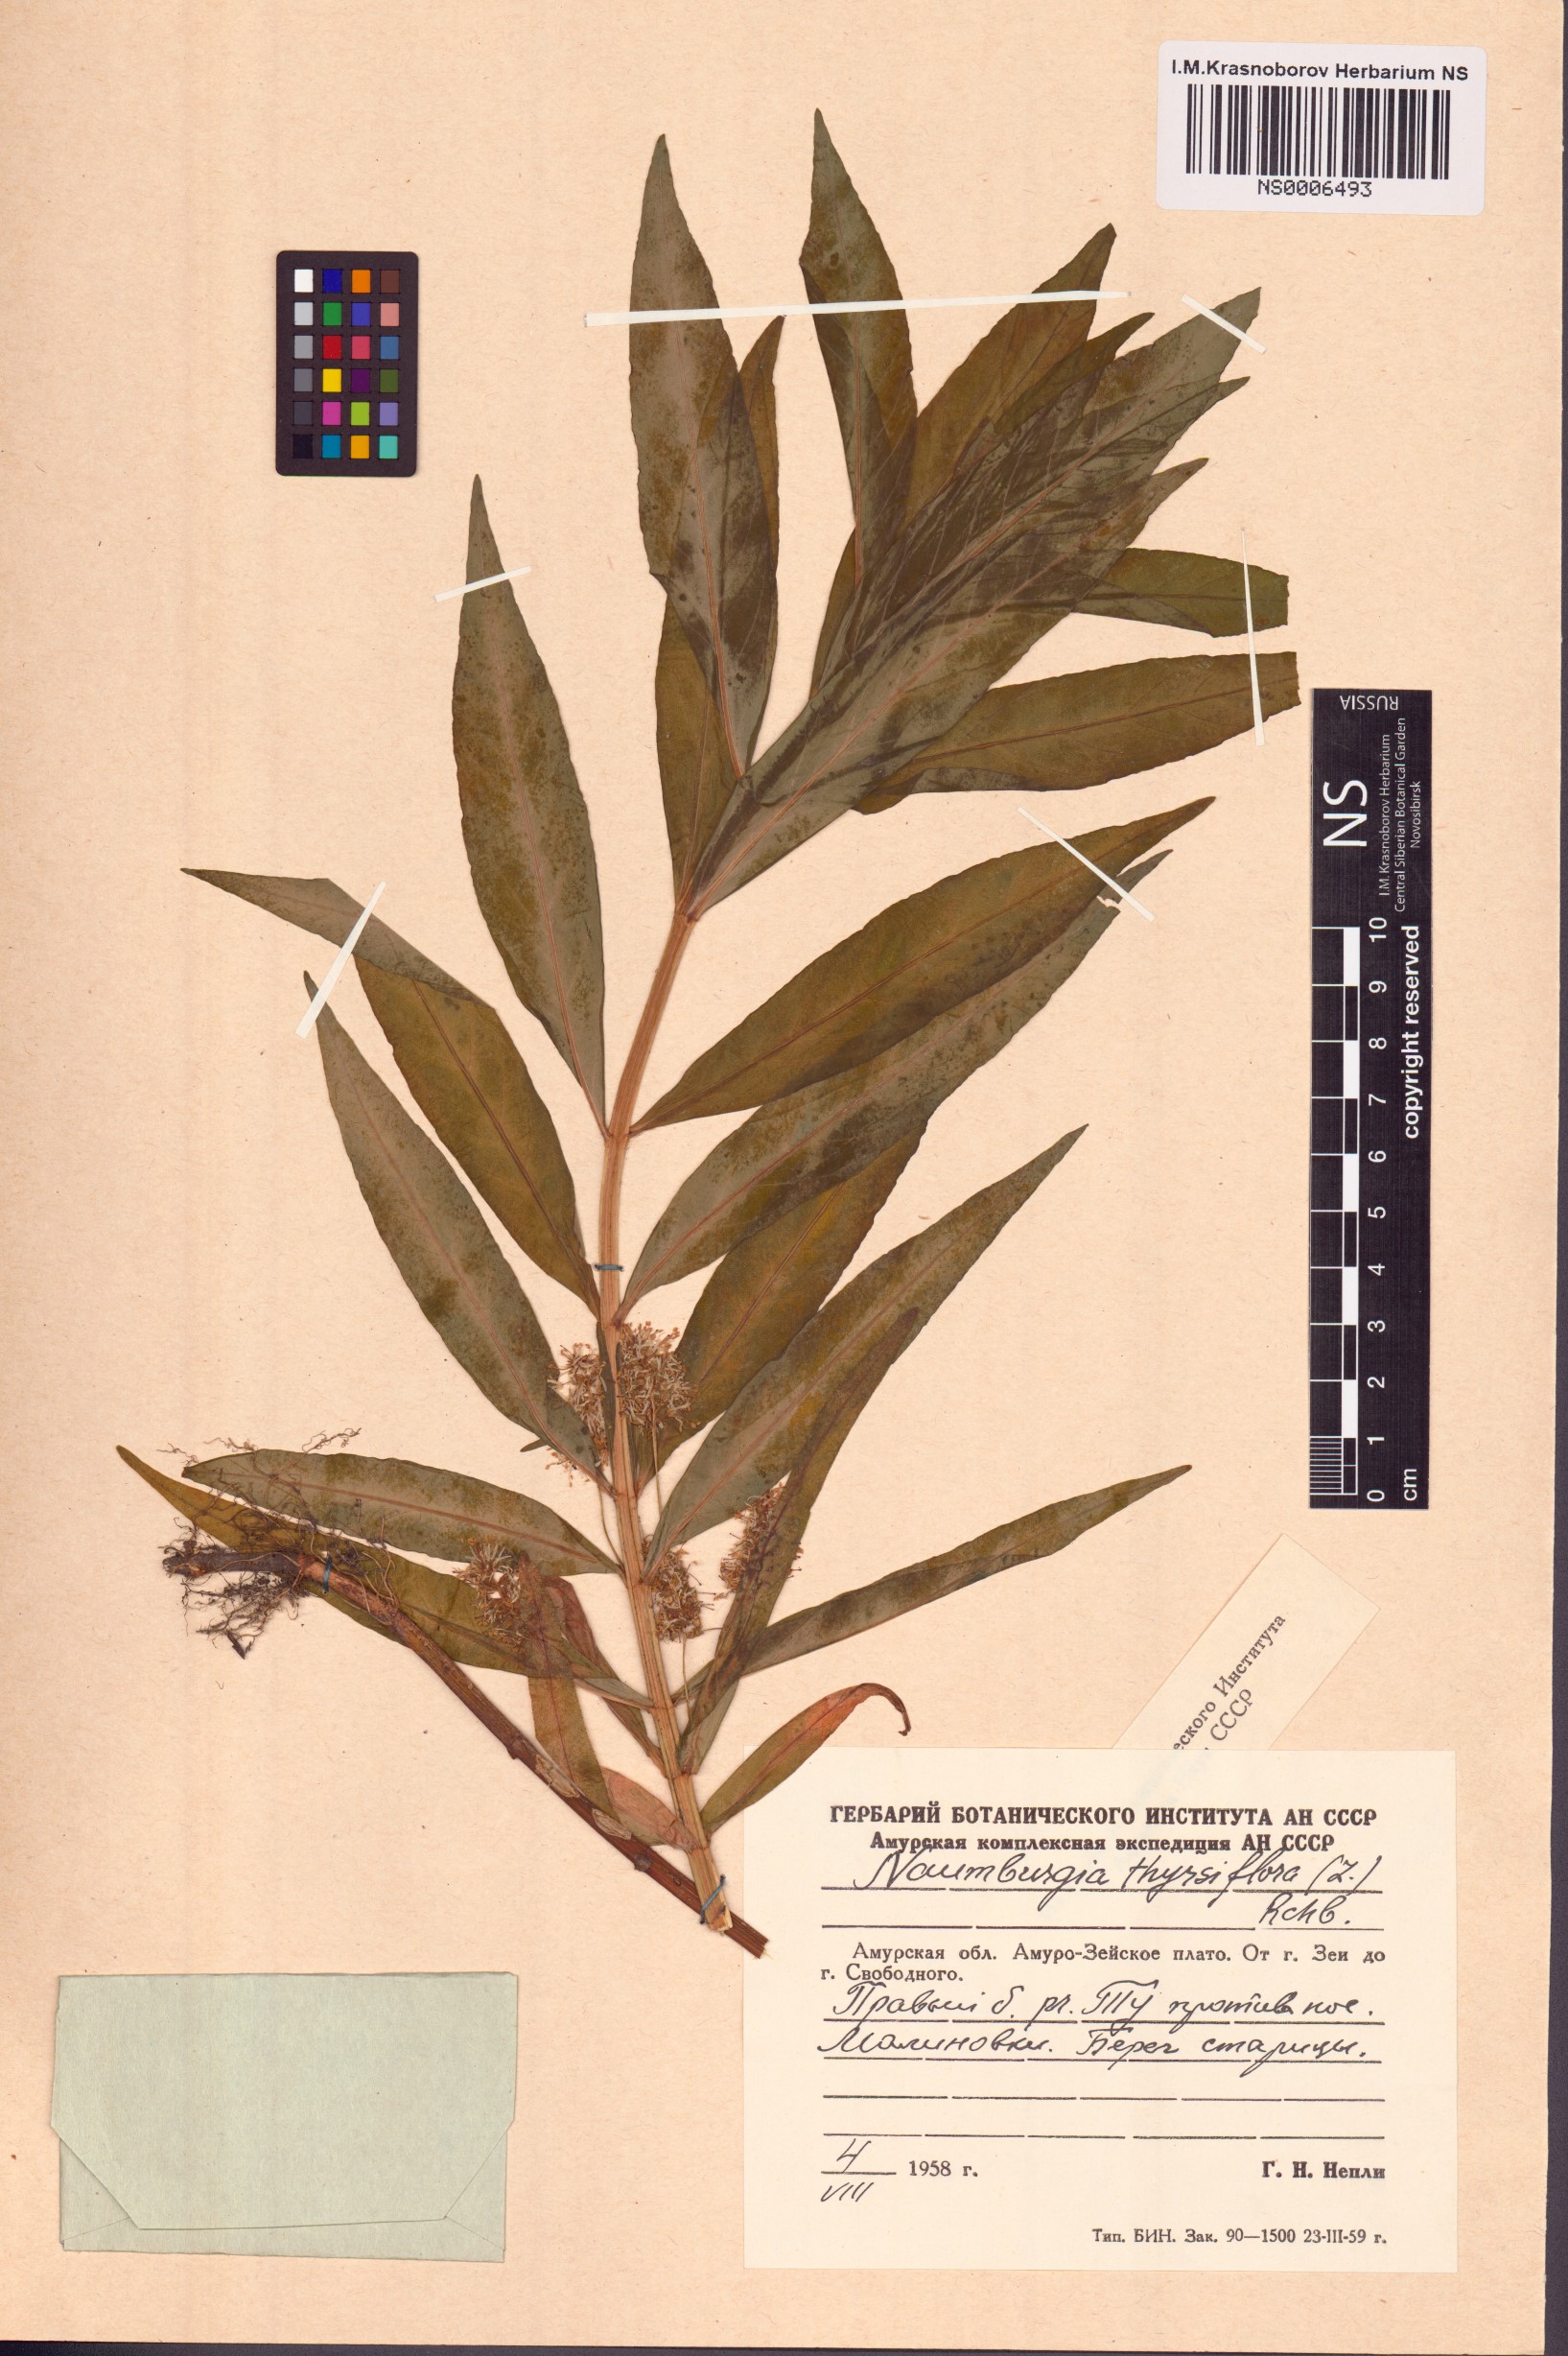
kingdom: Plantae
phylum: Tracheophyta
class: Magnoliopsida
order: Ericales
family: Primulaceae
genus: Lysimachia
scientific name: Lysimachia thyrsiflora
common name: Tufted loosestrife
